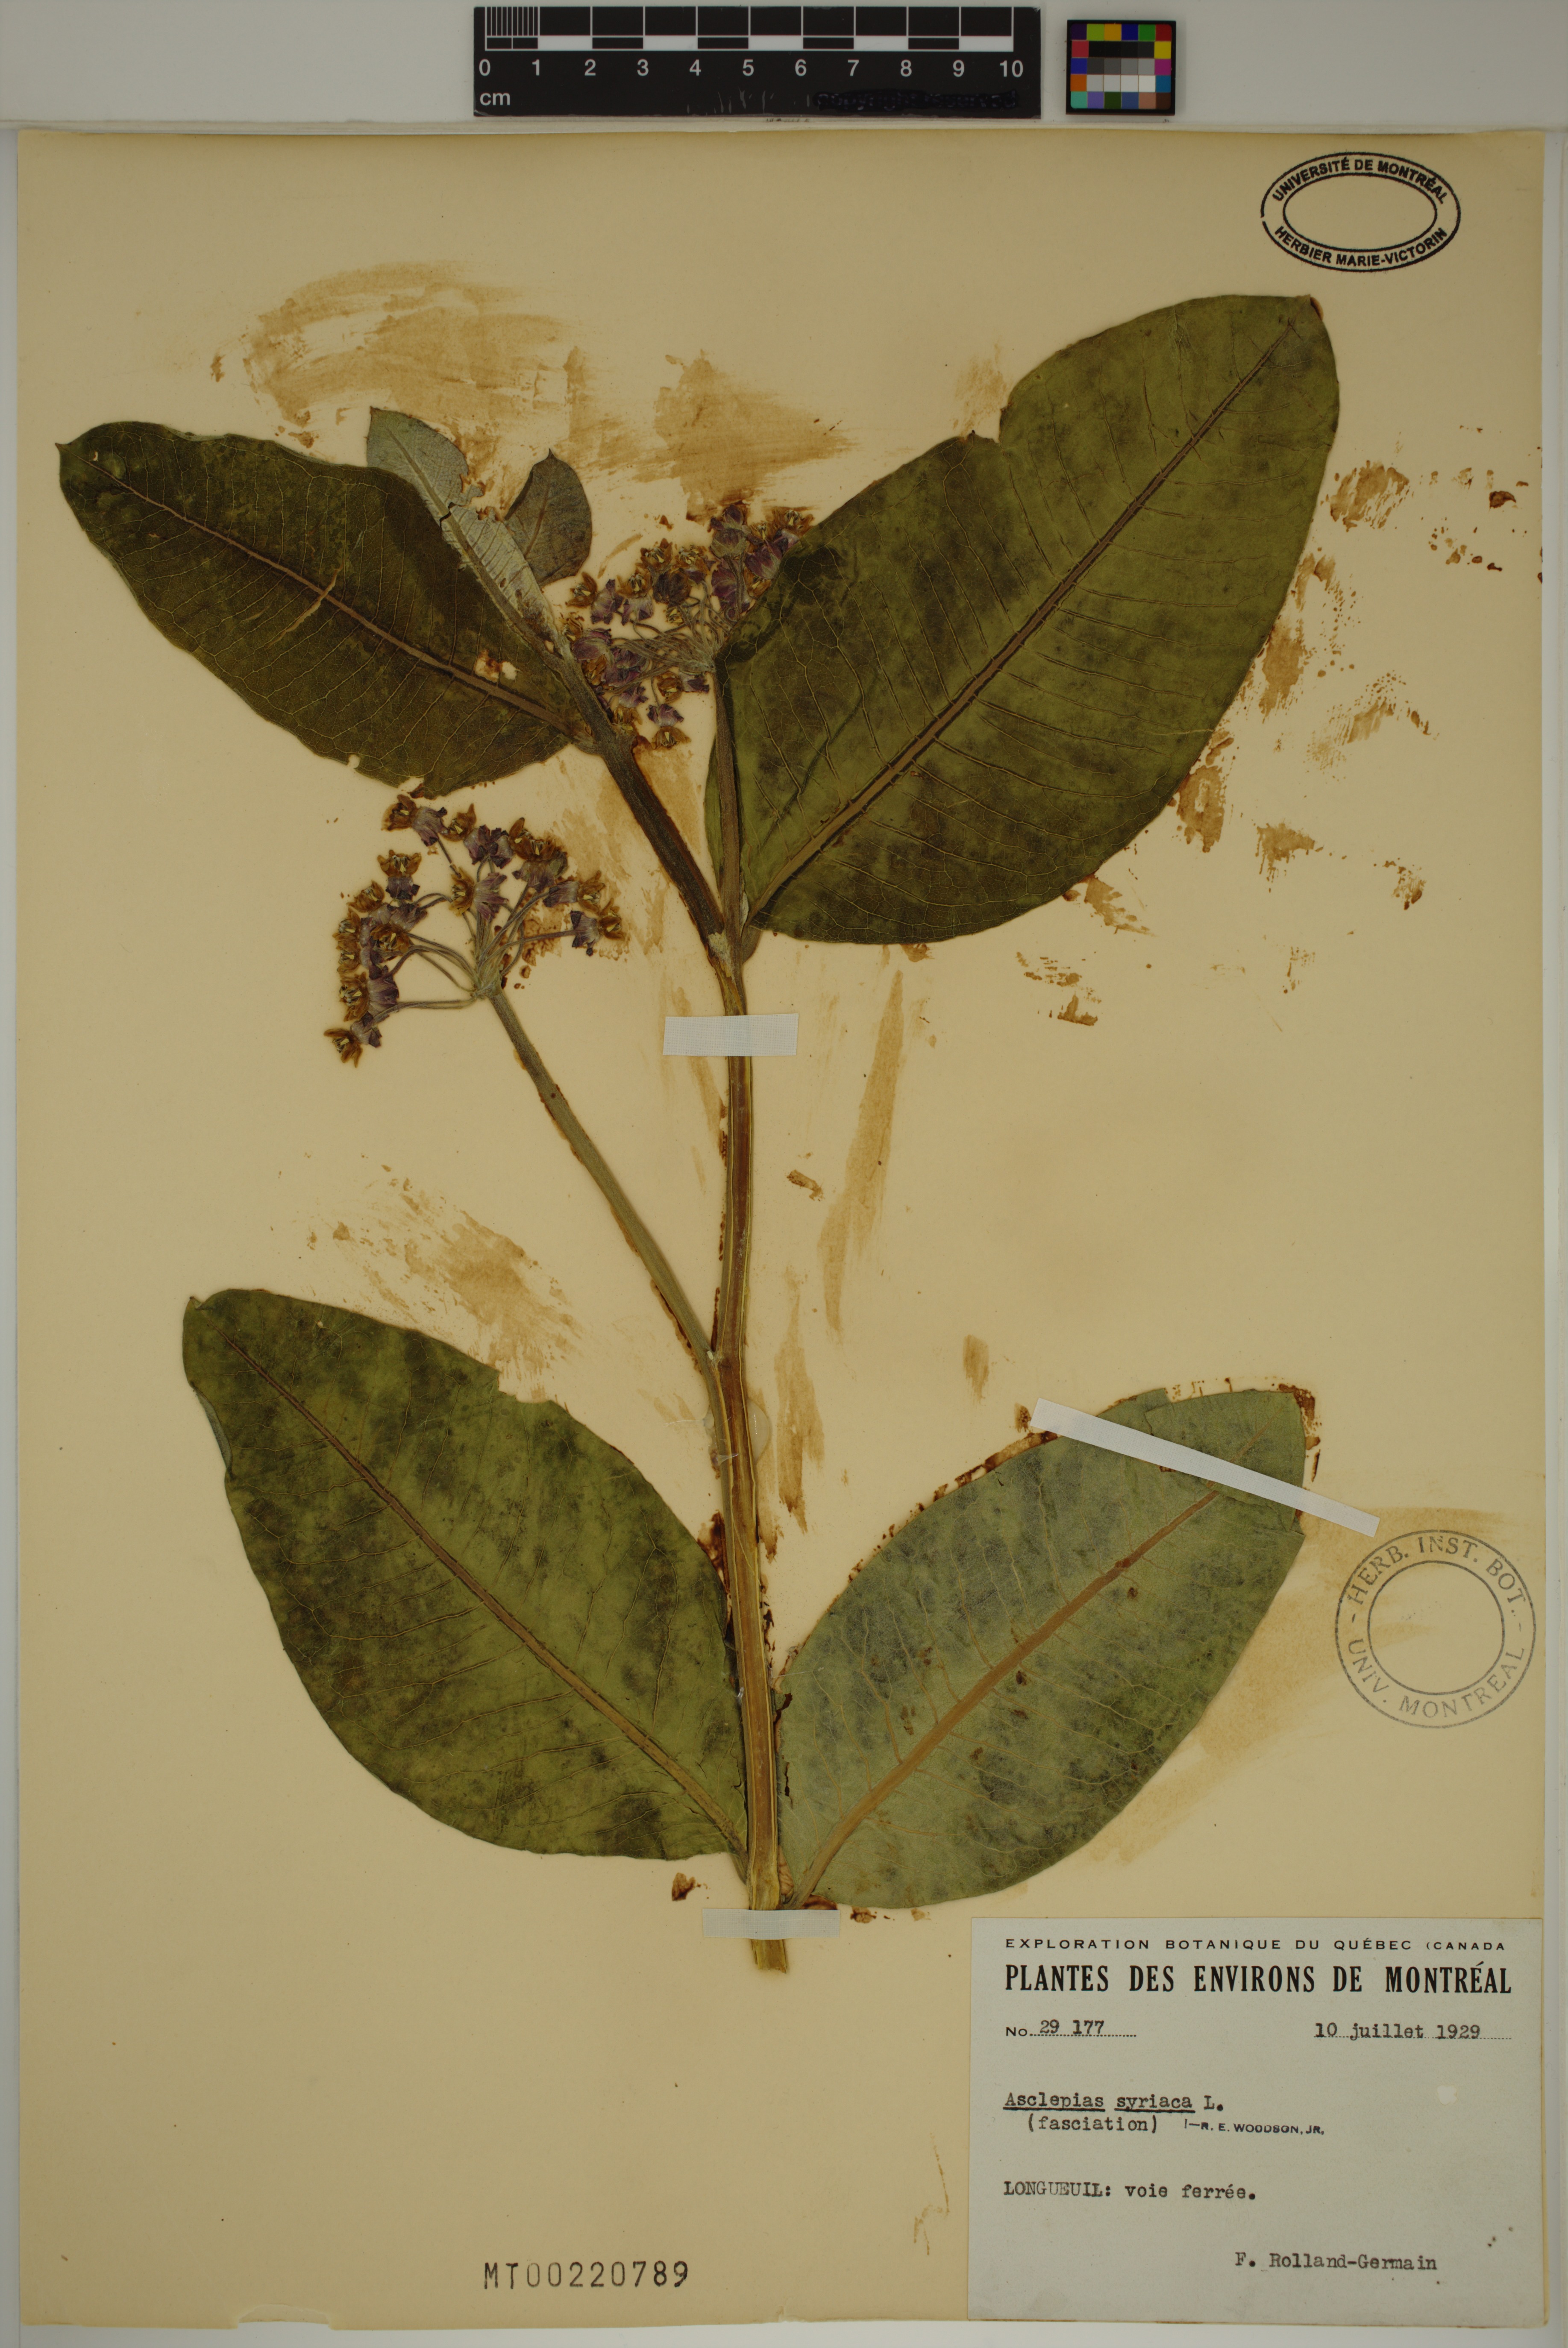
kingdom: Plantae
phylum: Tracheophyta
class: Magnoliopsida
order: Gentianales
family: Apocynaceae
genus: Asclepias
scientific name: Asclepias syriaca
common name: Common milkweed
